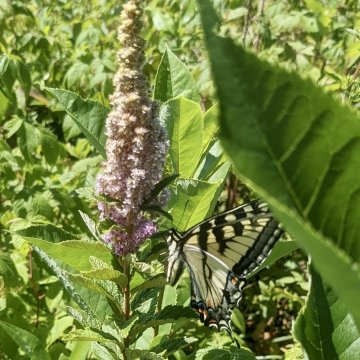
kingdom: Animalia
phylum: Arthropoda
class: Insecta
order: Lepidoptera
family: Papilionidae
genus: Pterourus
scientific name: Pterourus
